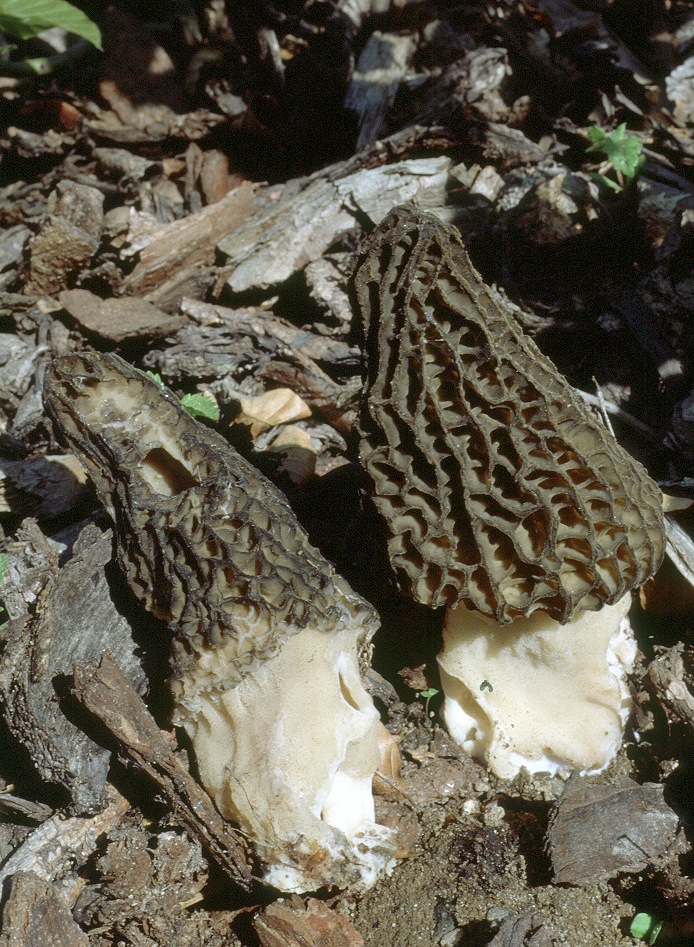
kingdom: Fungi
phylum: Ascomycota
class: Pezizomycetes
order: Pezizales
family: Morchellaceae
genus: Morchella
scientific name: Morchella esculenta
